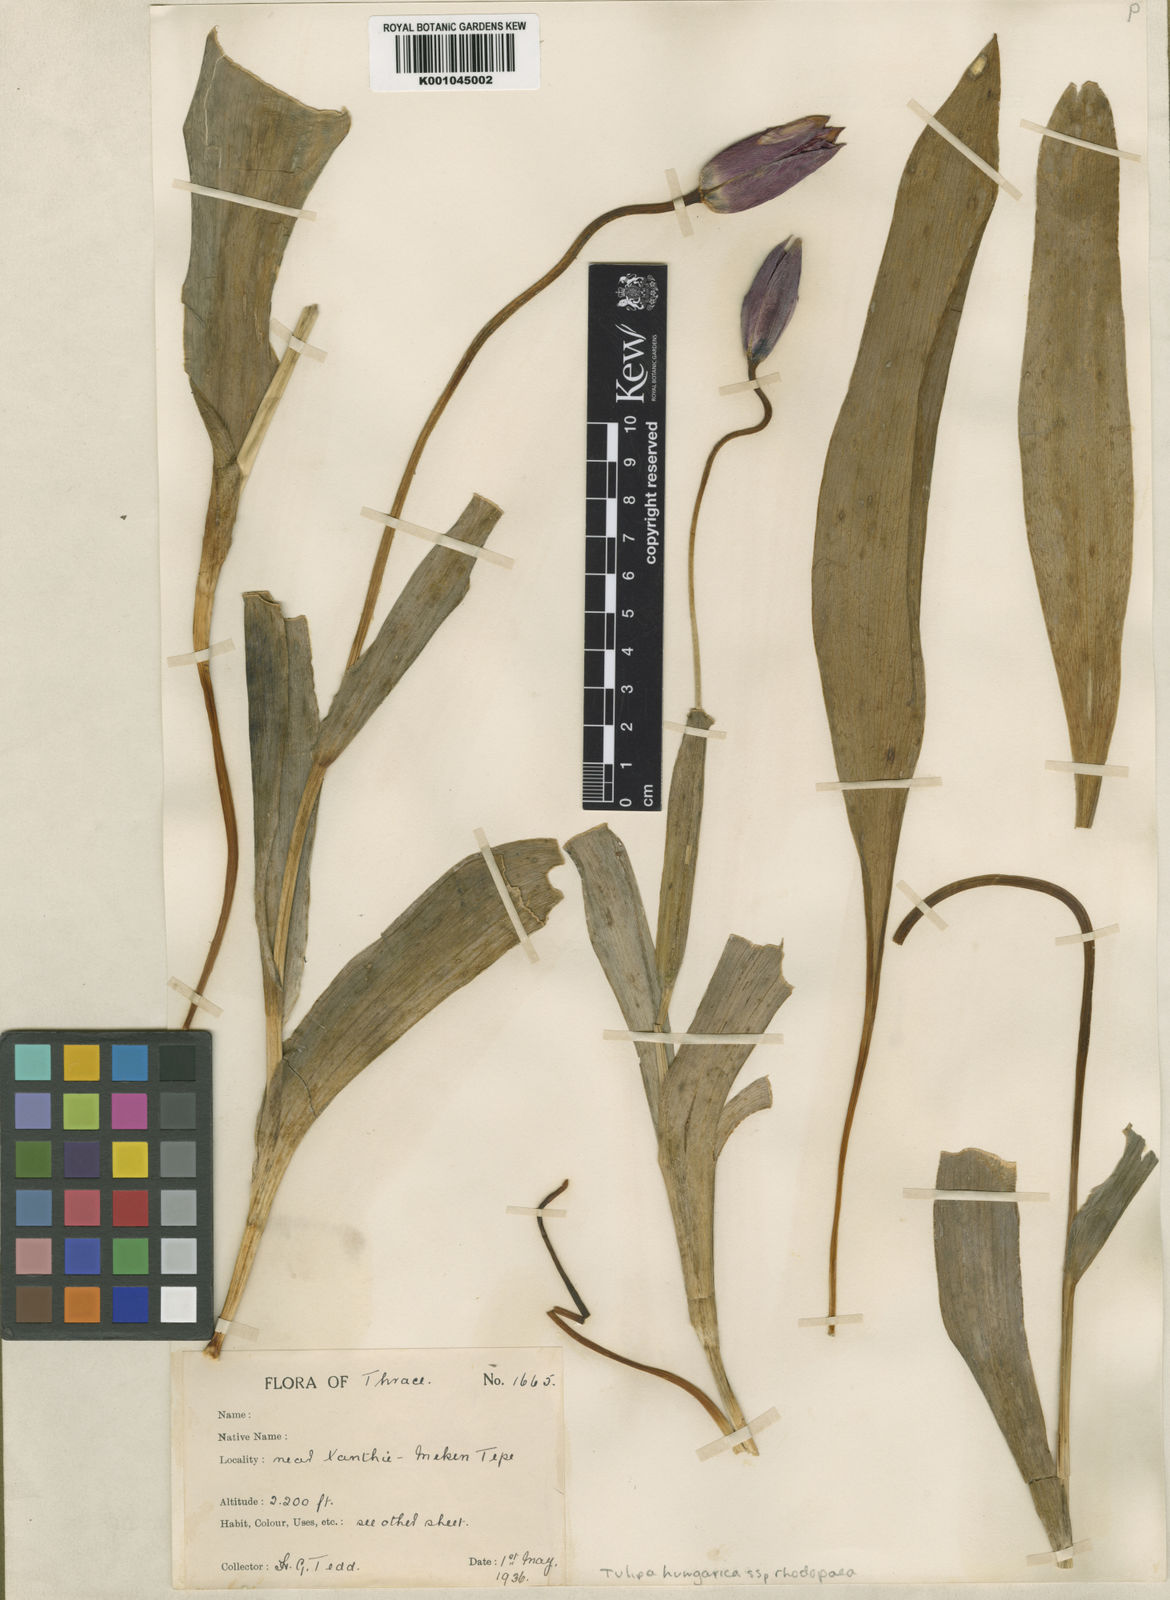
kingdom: Plantae
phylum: Tracheophyta
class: Liliopsida
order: Liliales
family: Liliaceae
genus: Tulipa
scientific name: Tulipa hungarica
